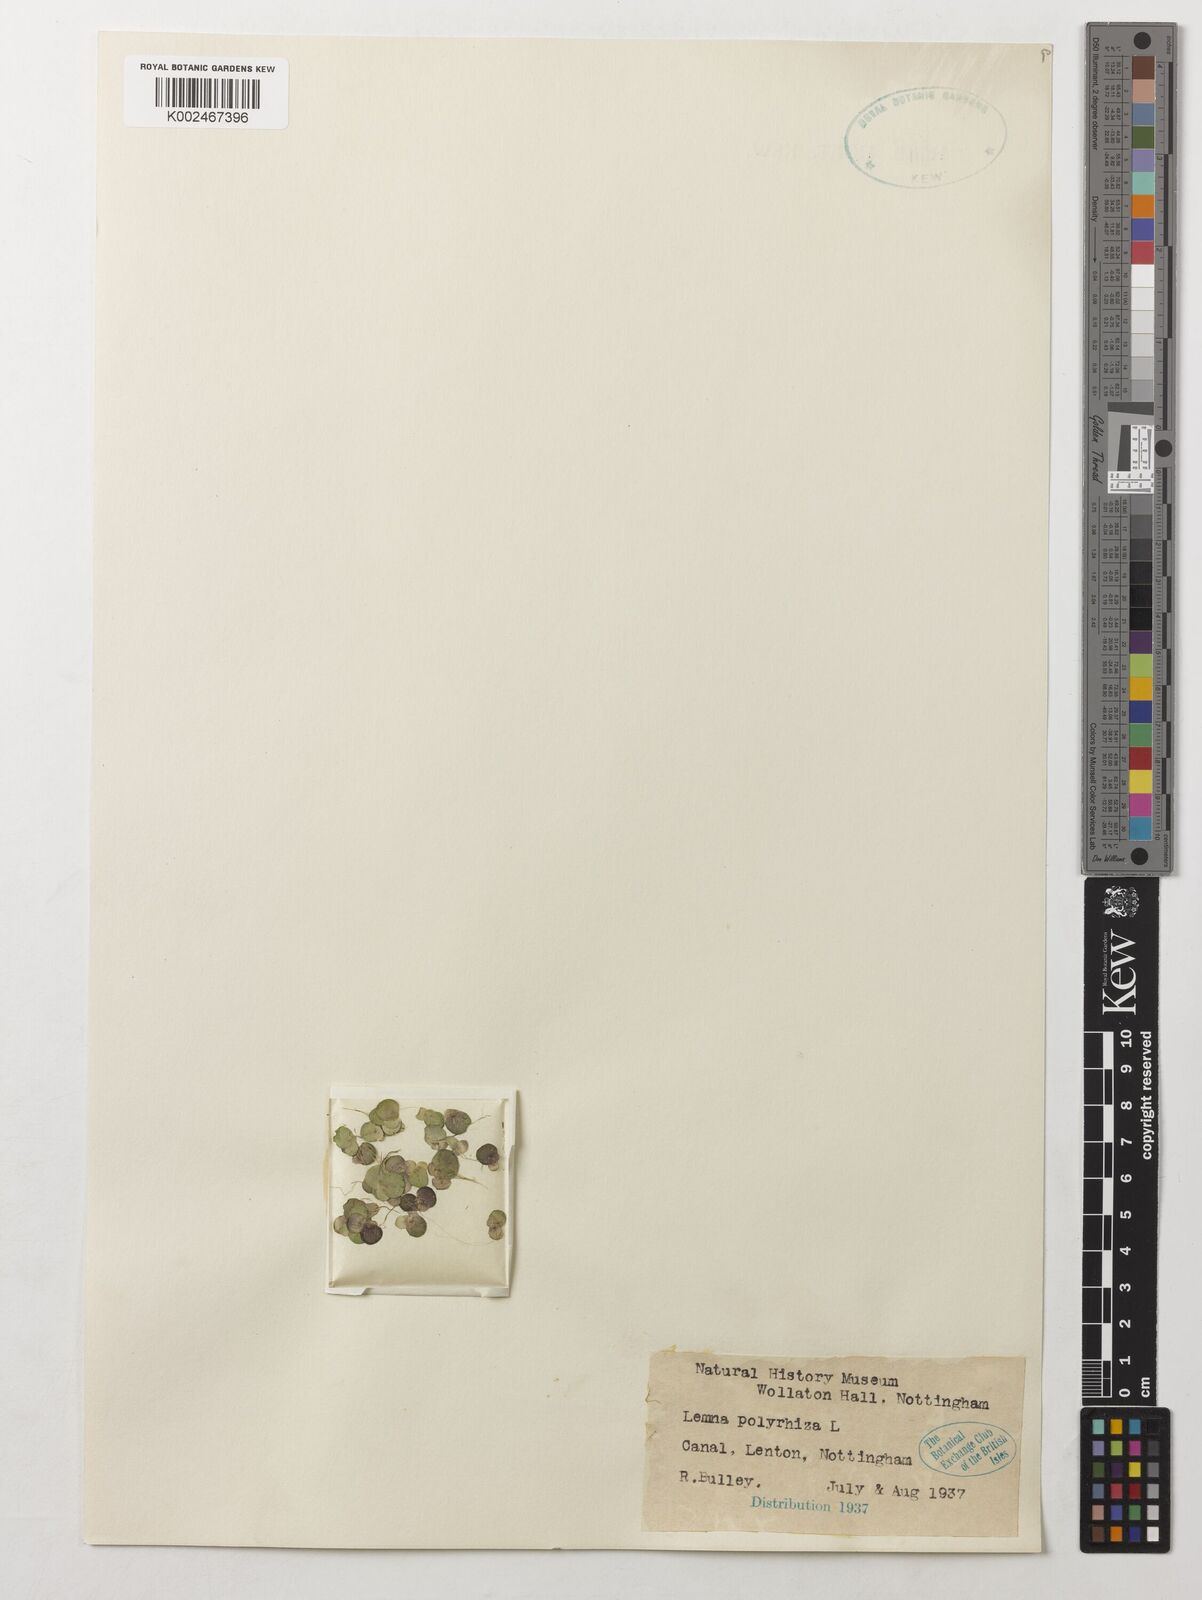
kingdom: Plantae
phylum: Tracheophyta
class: Liliopsida
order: Alismatales
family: Araceae
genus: Spirodela
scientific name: Spirodela polyrhiza
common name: Great duckweed
